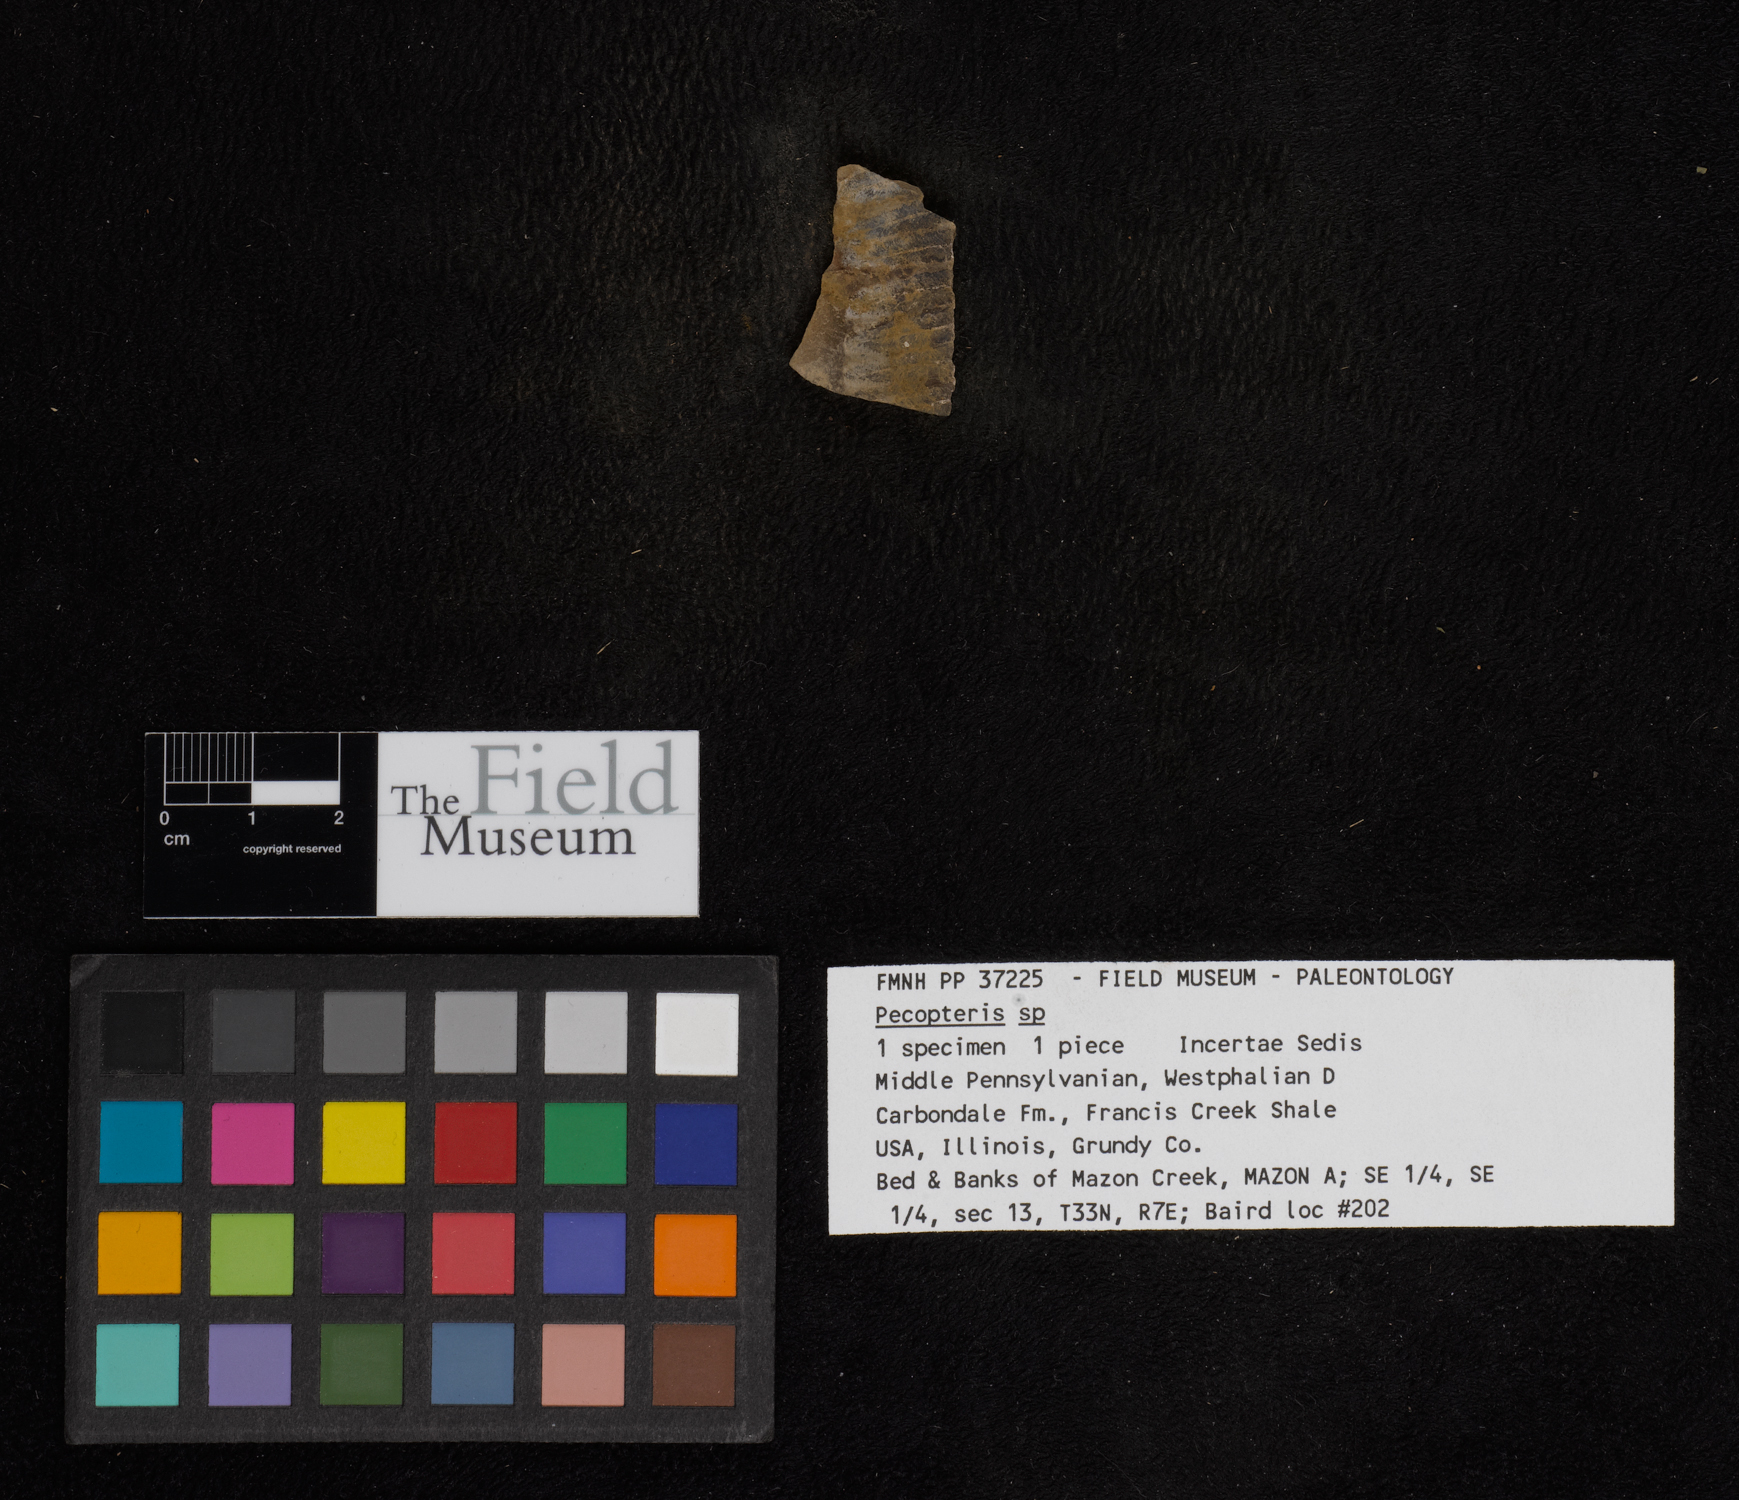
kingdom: Plantae
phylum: Tracheophyta
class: Polypodiopsida
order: Marattiales
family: Asterothecaceae
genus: Pecopteris
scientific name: Pecopteris
